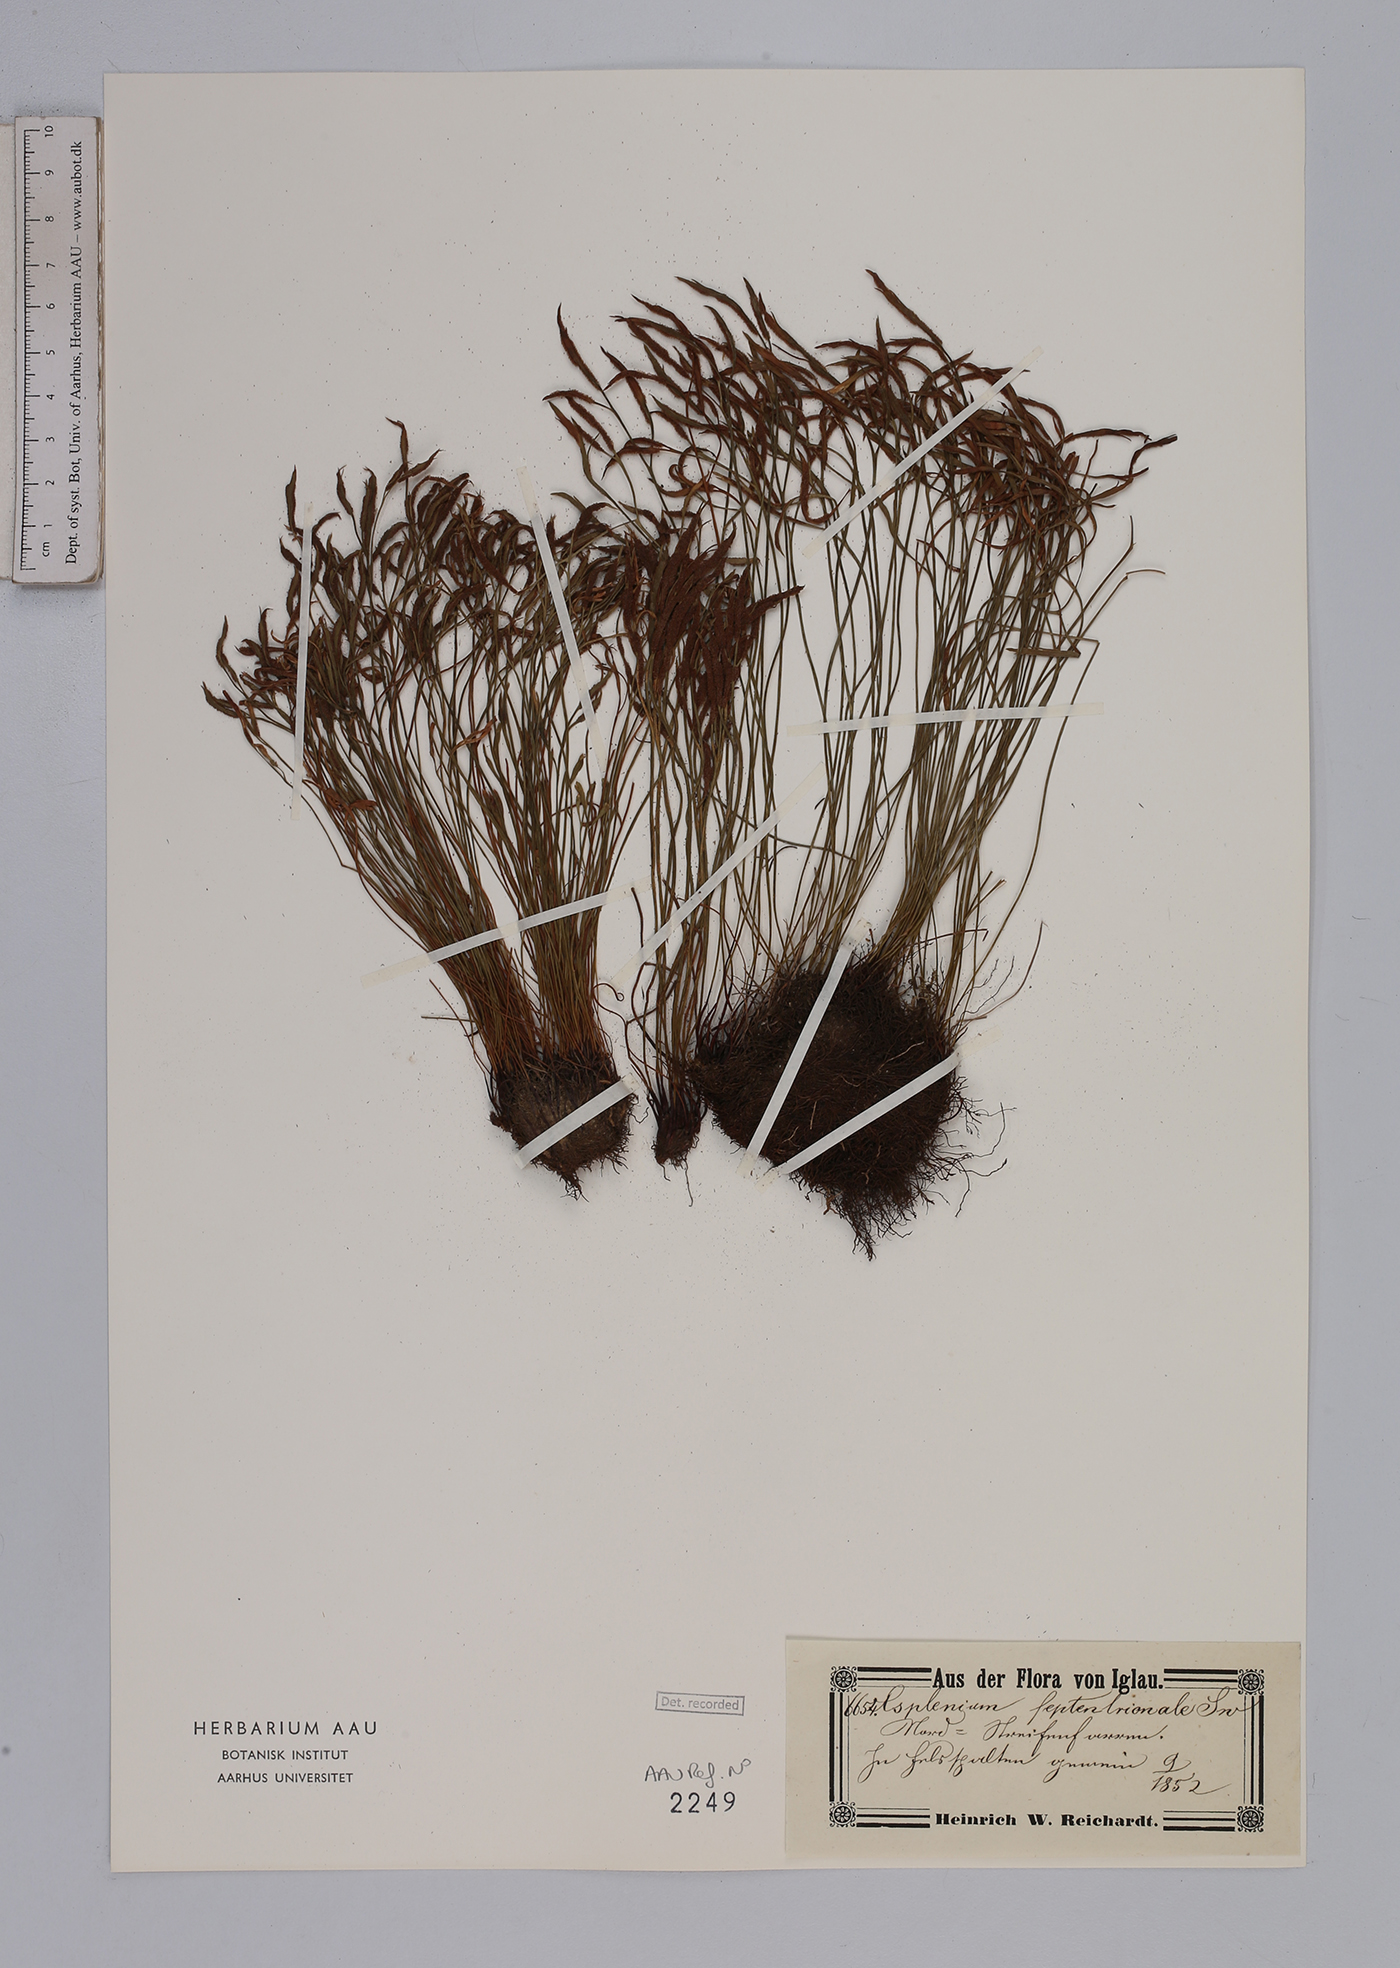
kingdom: Plantae
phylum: Tracheophyta
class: Polypodiopsida
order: Polypodiales
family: Aspleniaceae
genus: Asplenium
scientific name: Asplenium septentrionale
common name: Forked spleenwort
